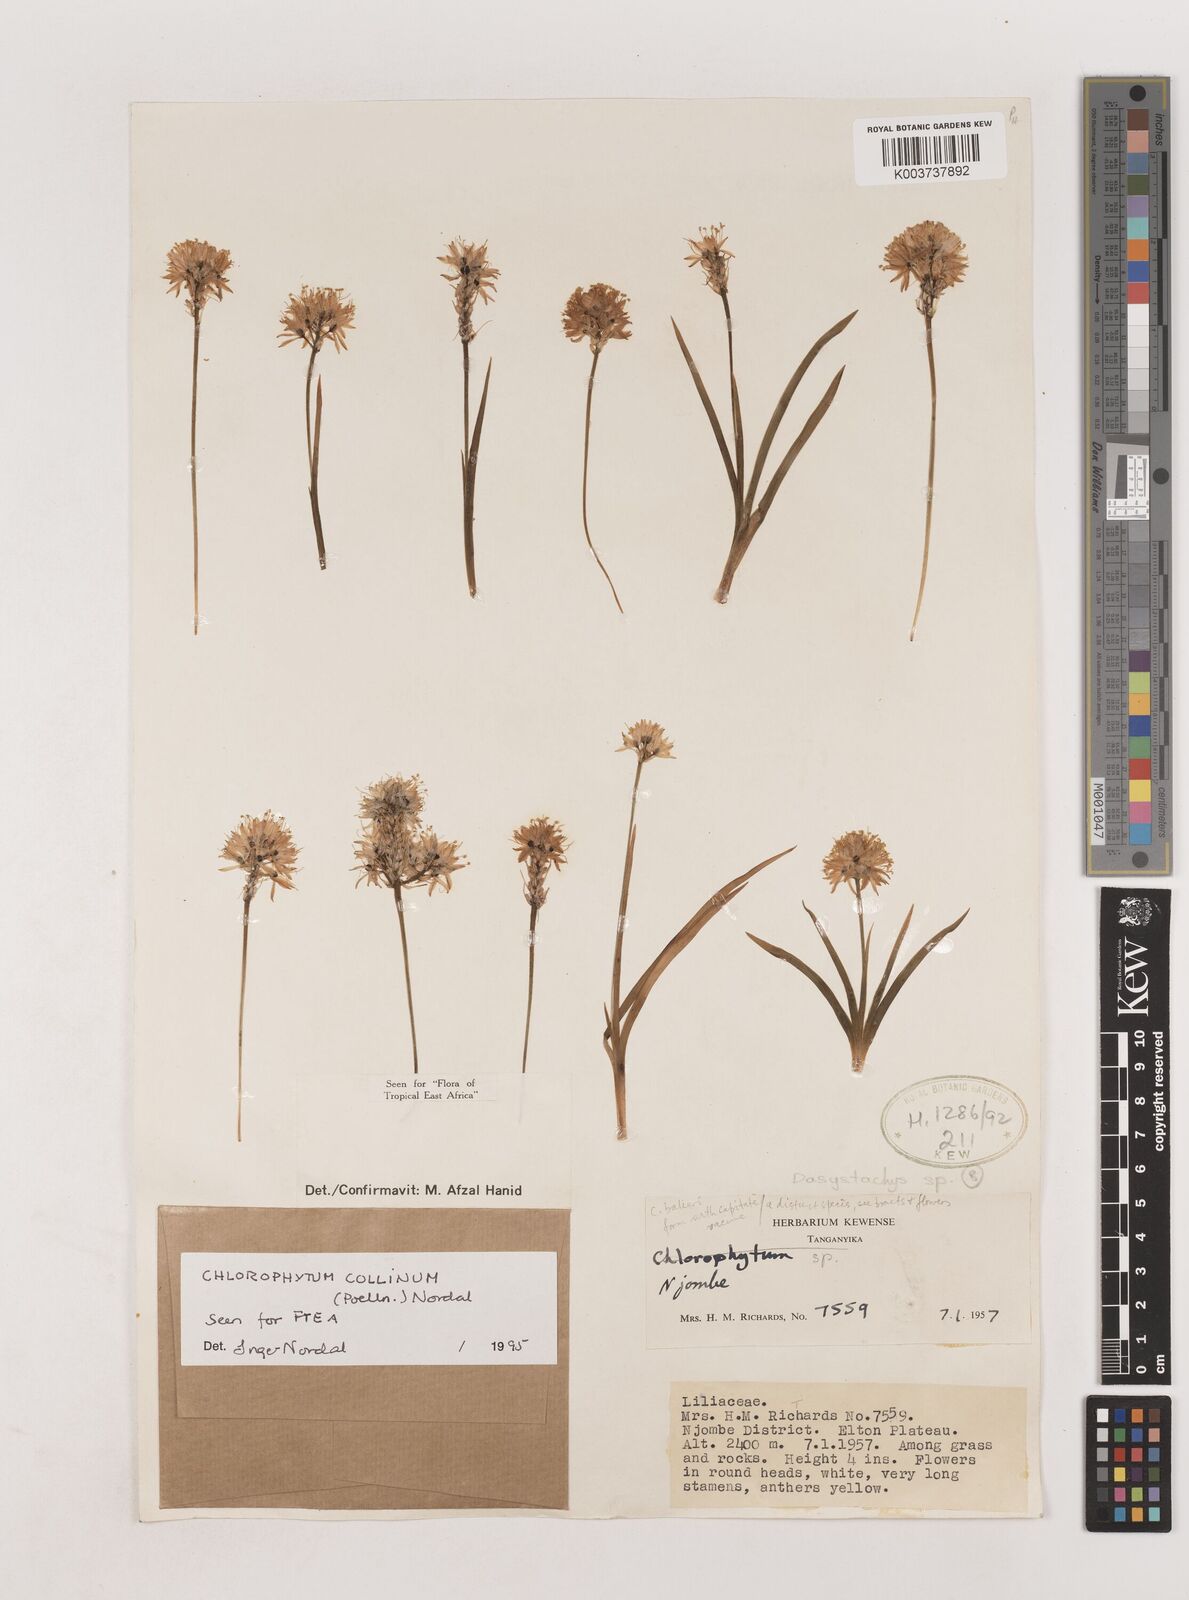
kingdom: Plantae
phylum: Tracheophyta
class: Liliopsida
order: Asparagales
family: Asparagaceae
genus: Chlorophytum
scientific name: Chlorophytum collinum
